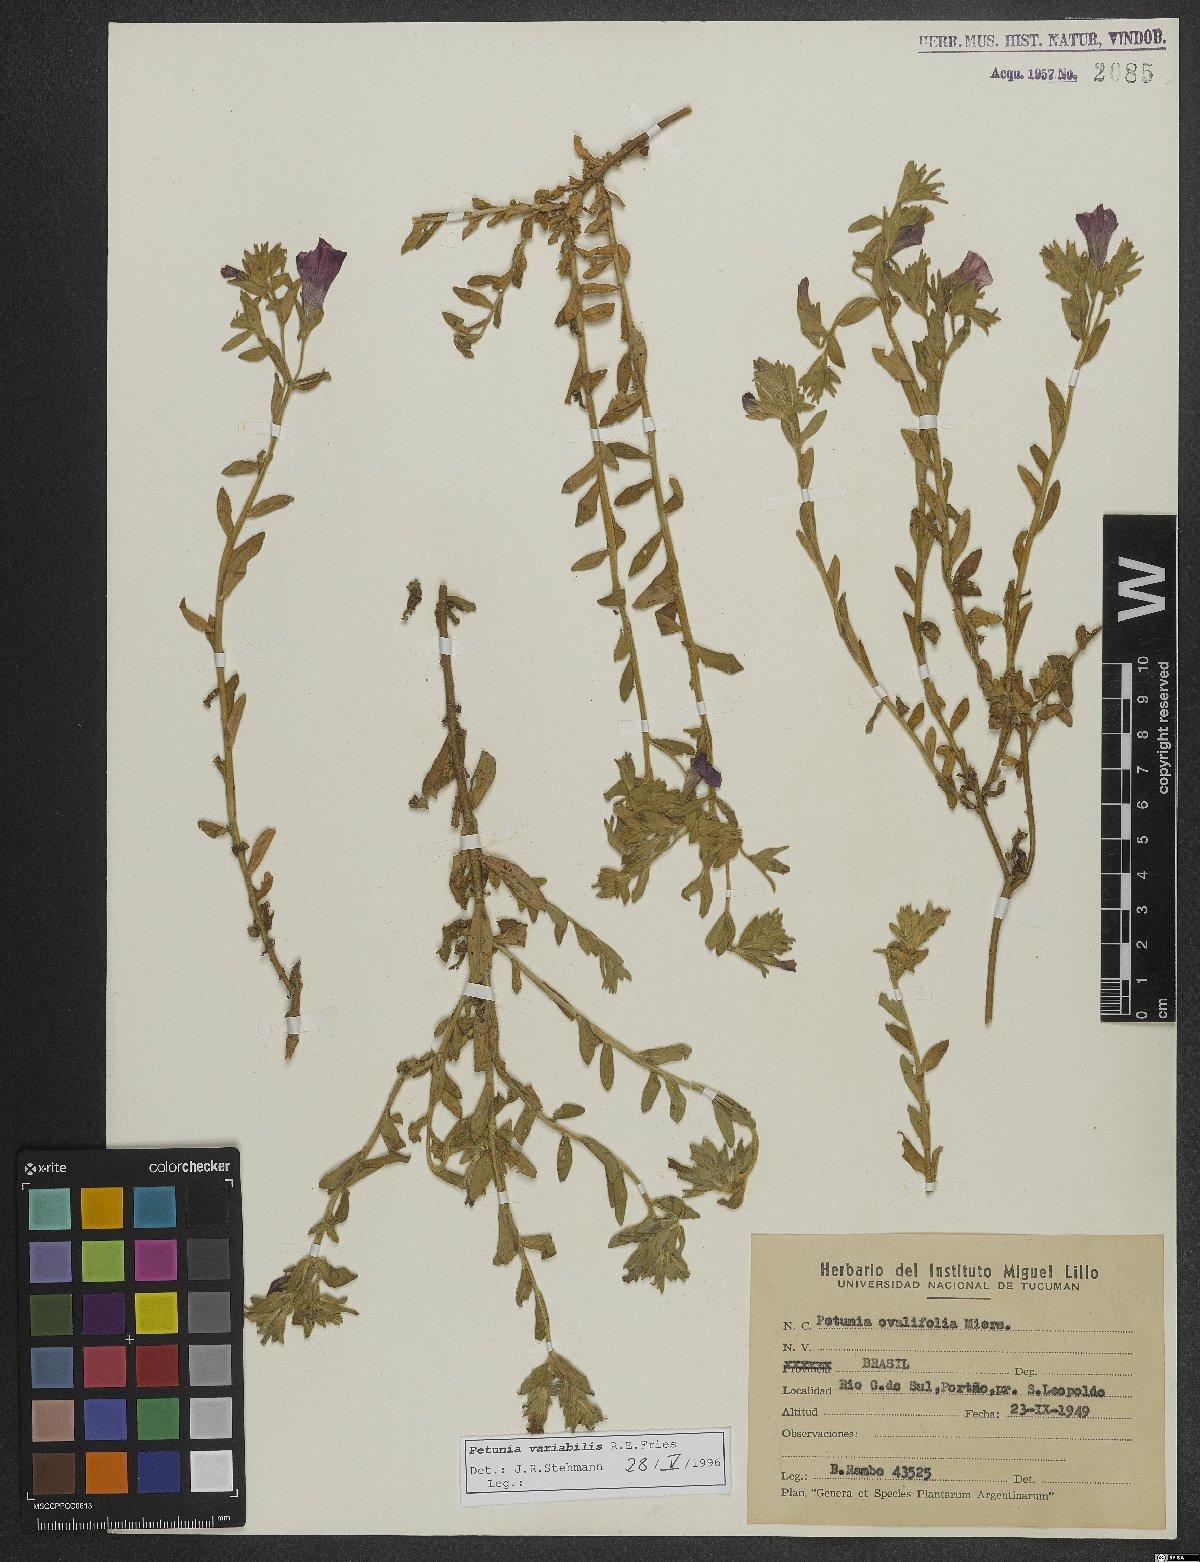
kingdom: Plantae
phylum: Tracheophyta
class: Magnoliopsida
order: Solanales
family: Solanaceae
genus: Calibrachoa
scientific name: Calibrachoa excellens
